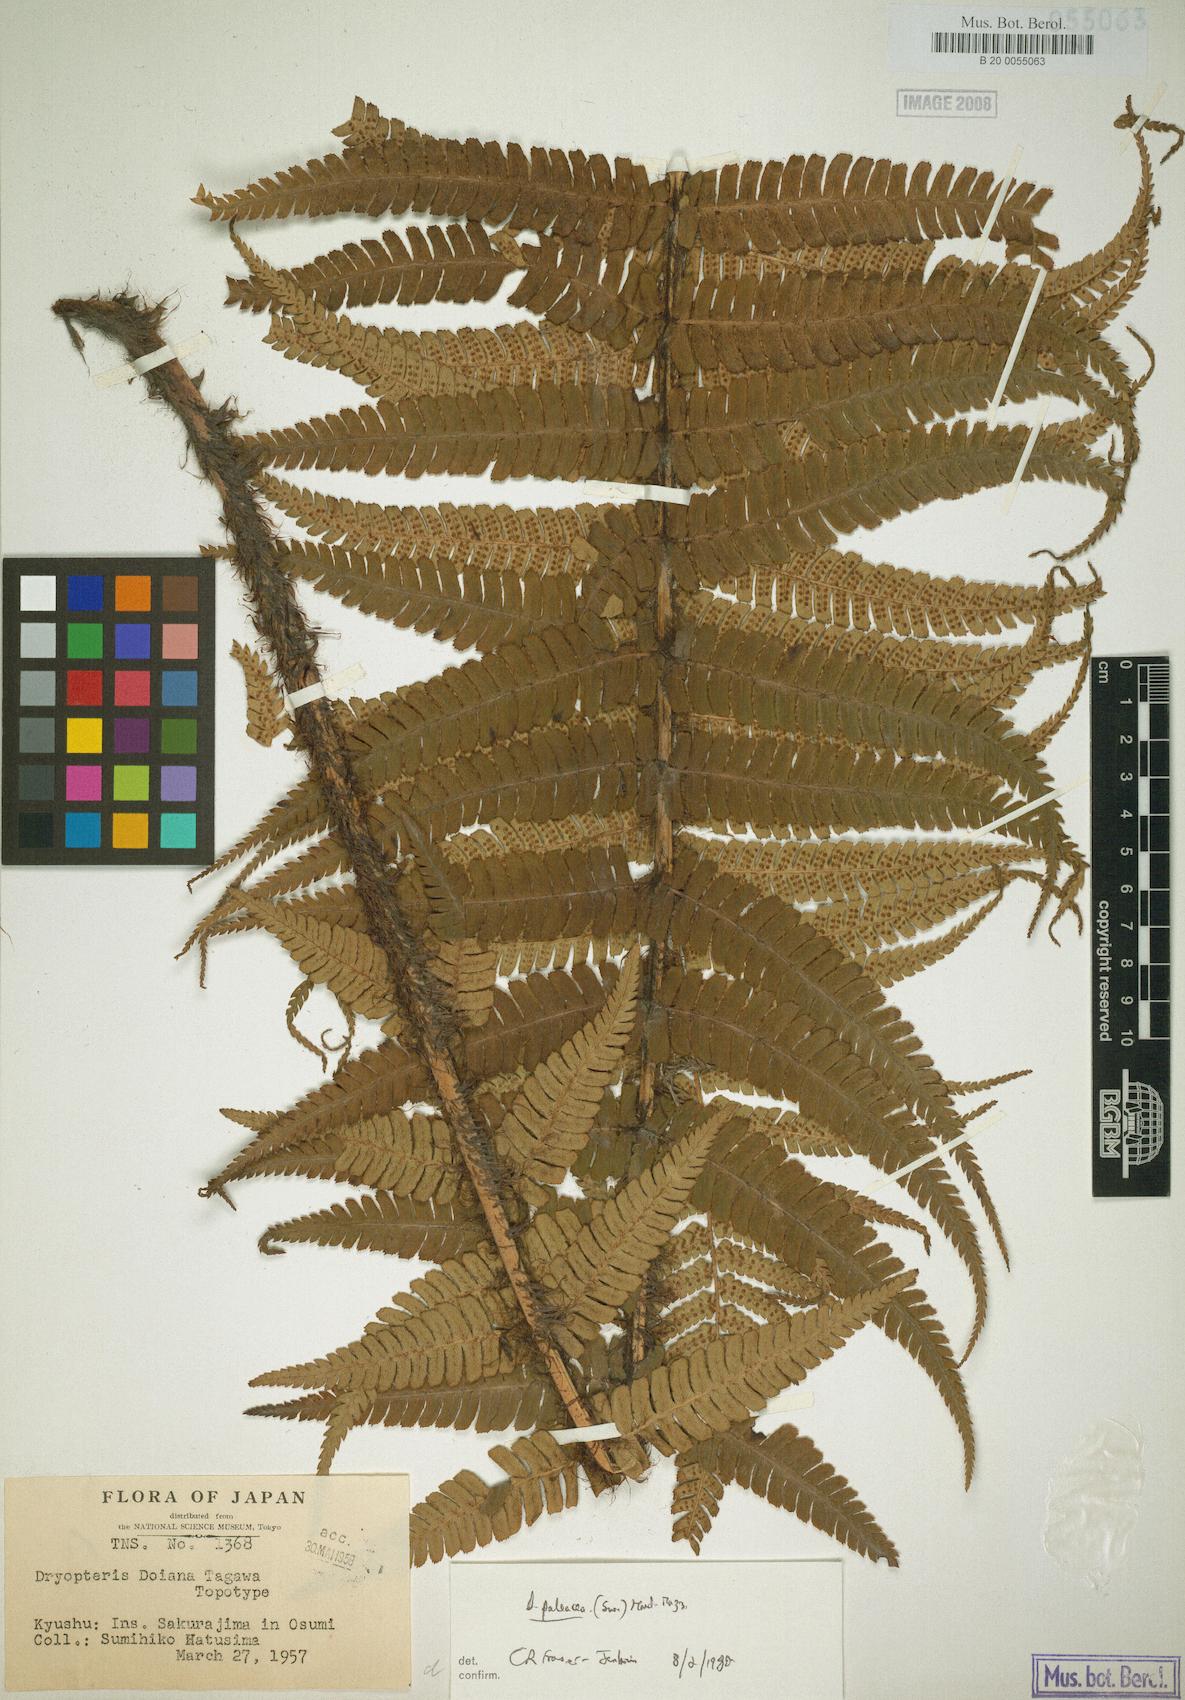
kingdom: Plantae
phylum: Tracheophyta
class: Polypodiopsida
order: Polypodiales
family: Dryopteridaceae
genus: Dryopteris
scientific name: Dryopteris wallichiana
